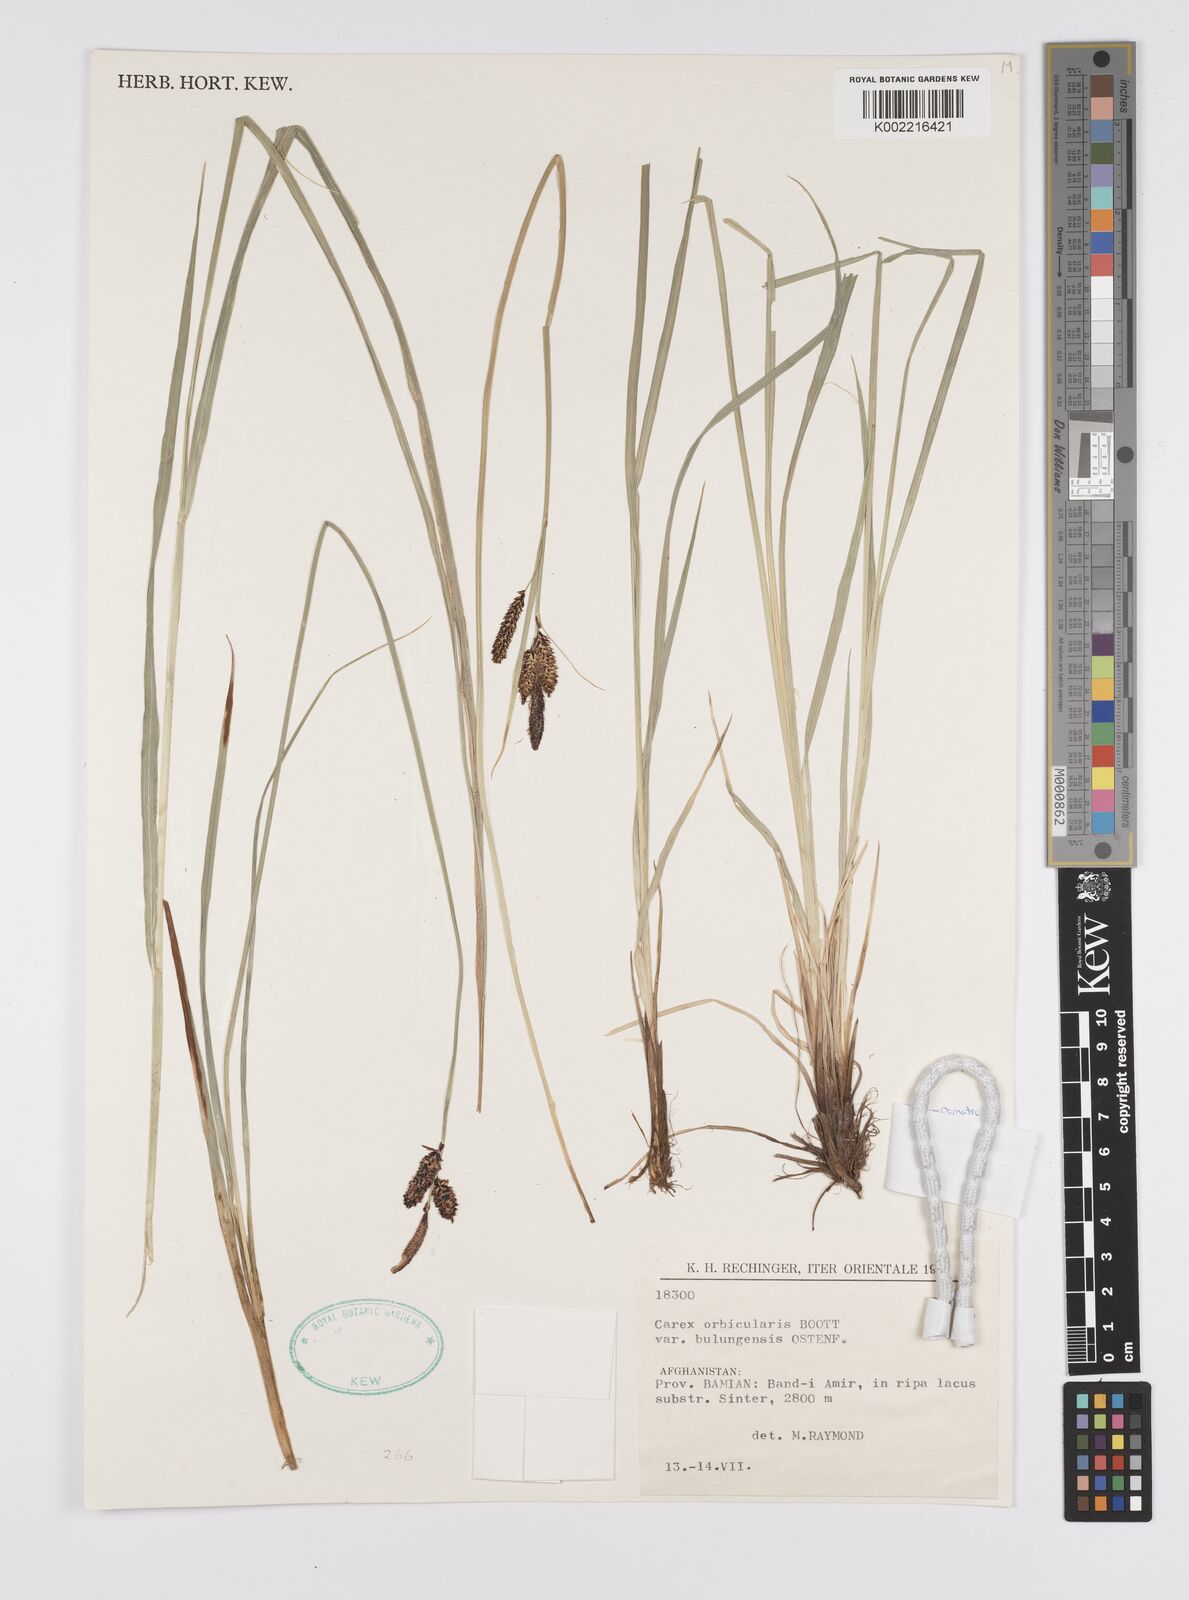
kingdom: Plantae
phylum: Tracheophyta
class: Liliopsida
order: Poales
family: Cyperaceae
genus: Carex
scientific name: Carex orbicularis
